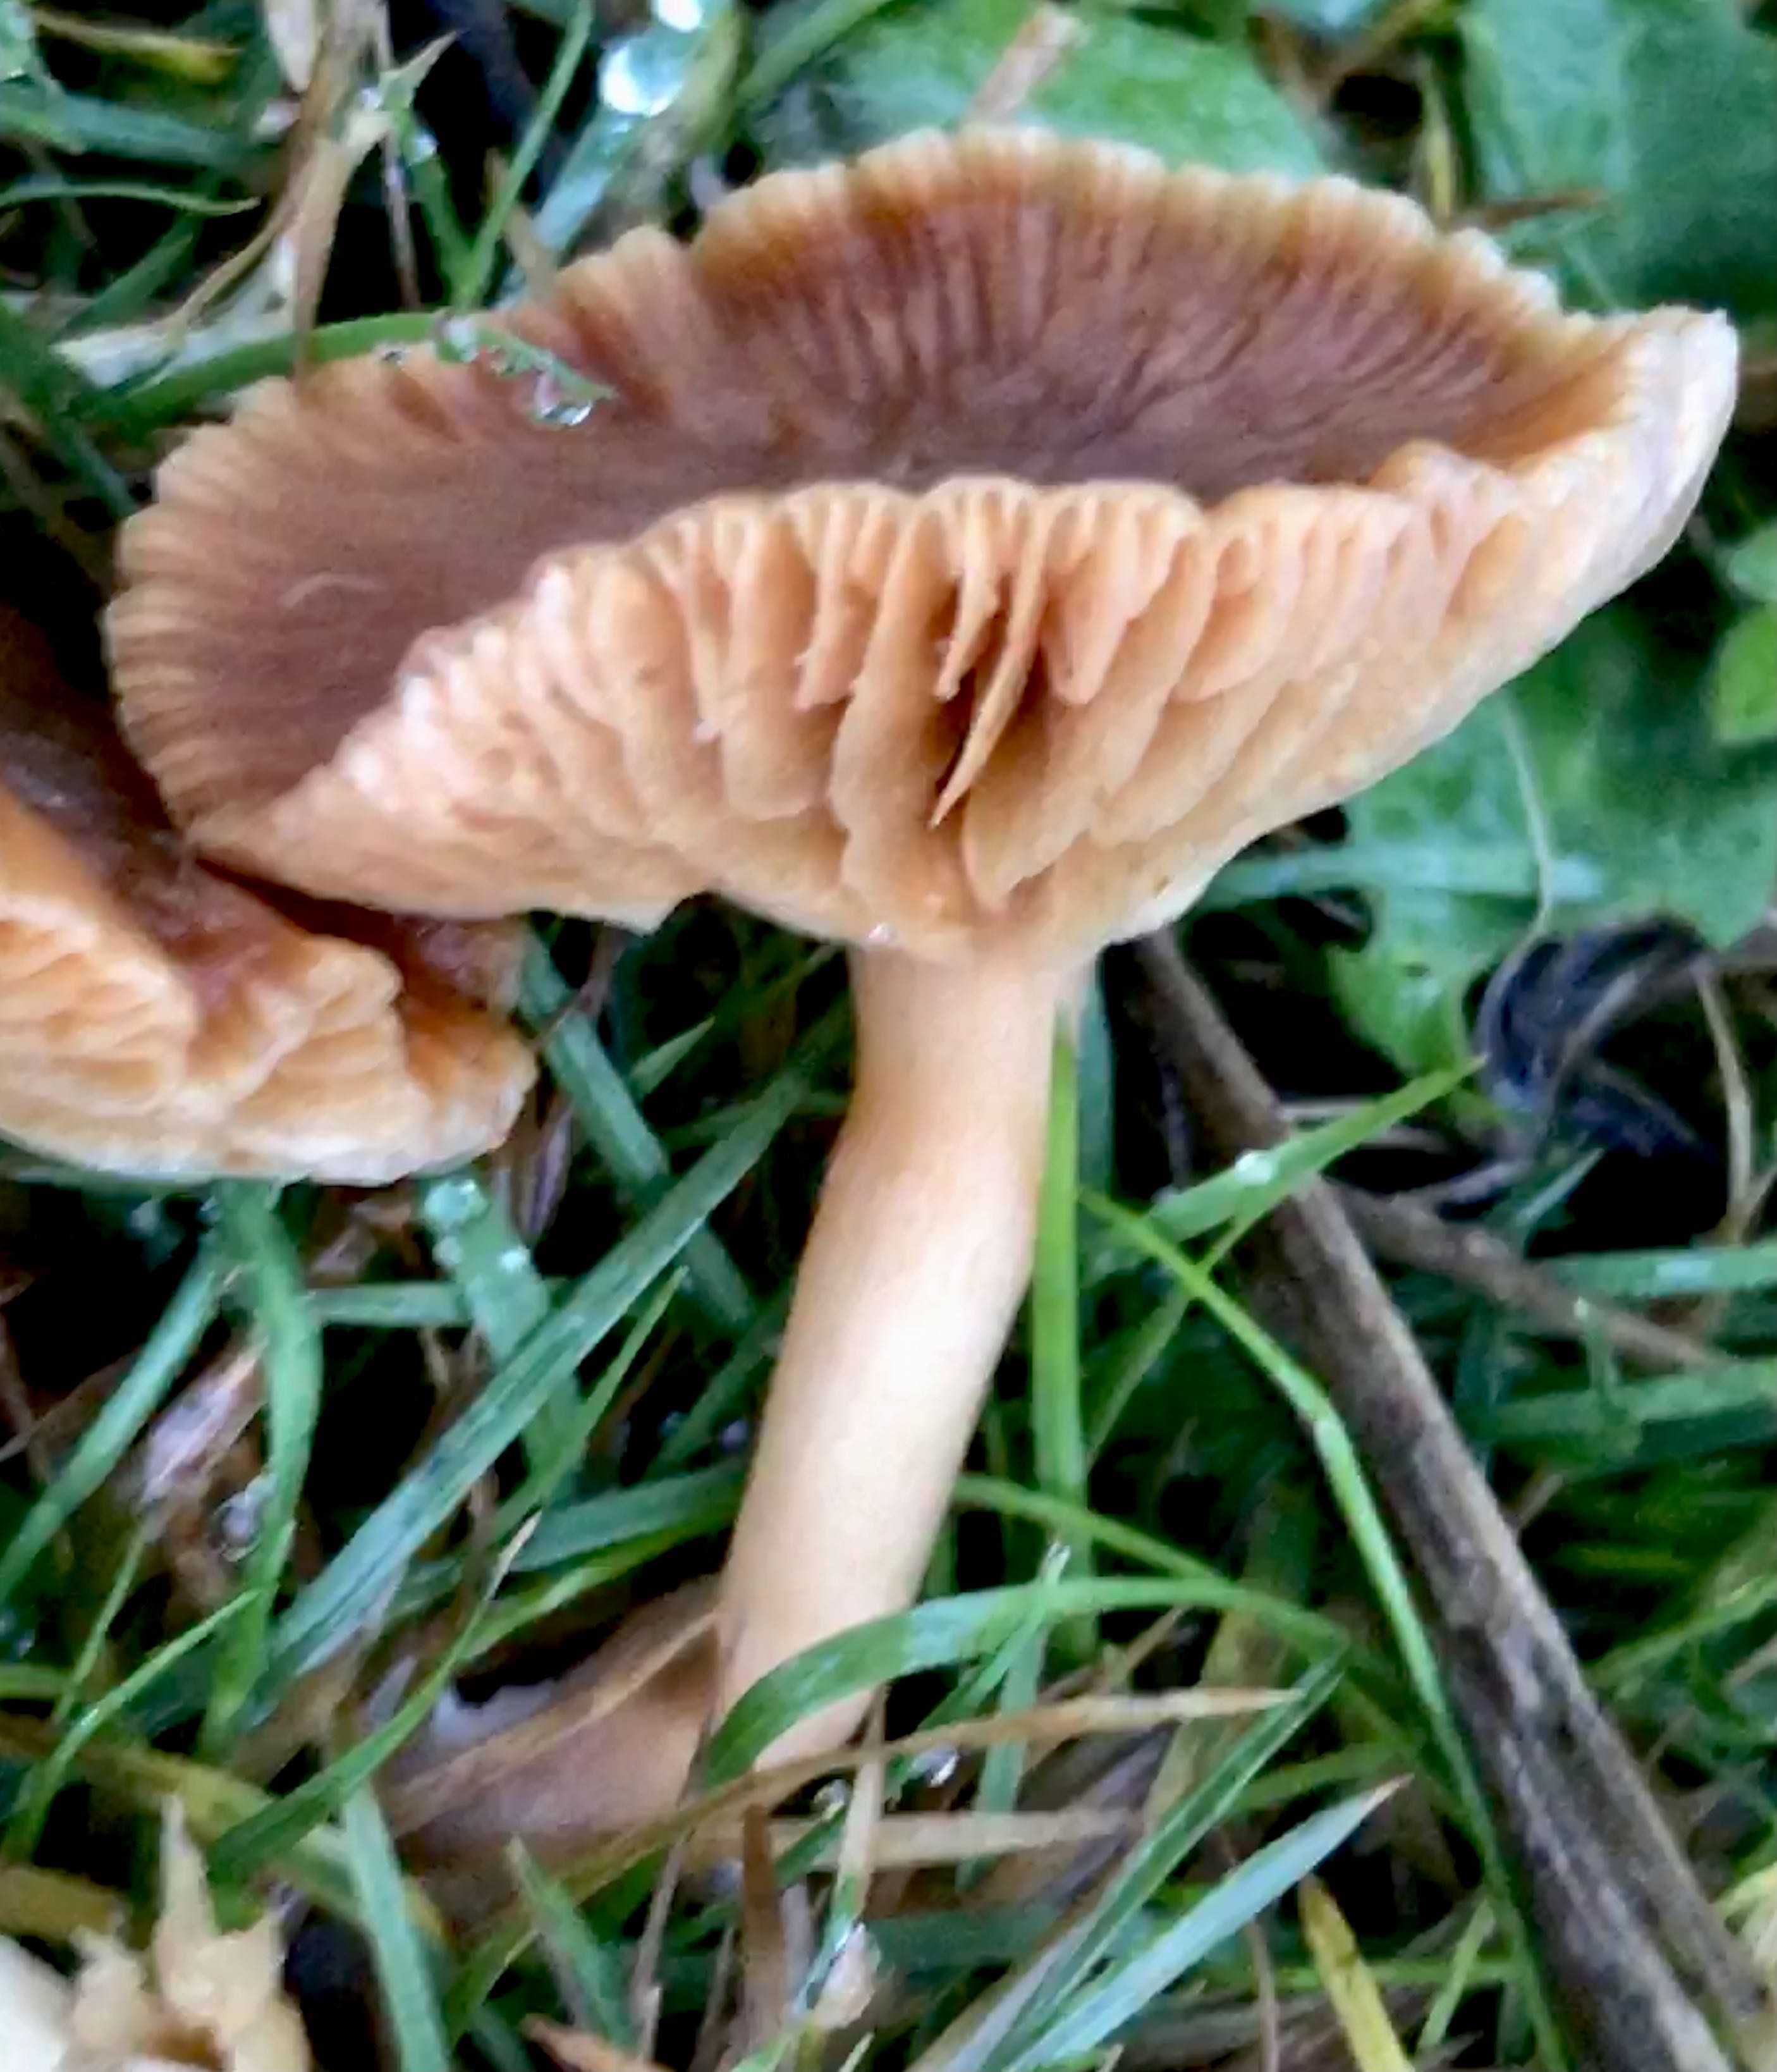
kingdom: Fungi
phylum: Basidiomycota
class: Agaricomycetes
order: Agaricales
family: Tubariaceae
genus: Tubaria
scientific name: Tubaria furfuracea
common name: kliddet fnughat
